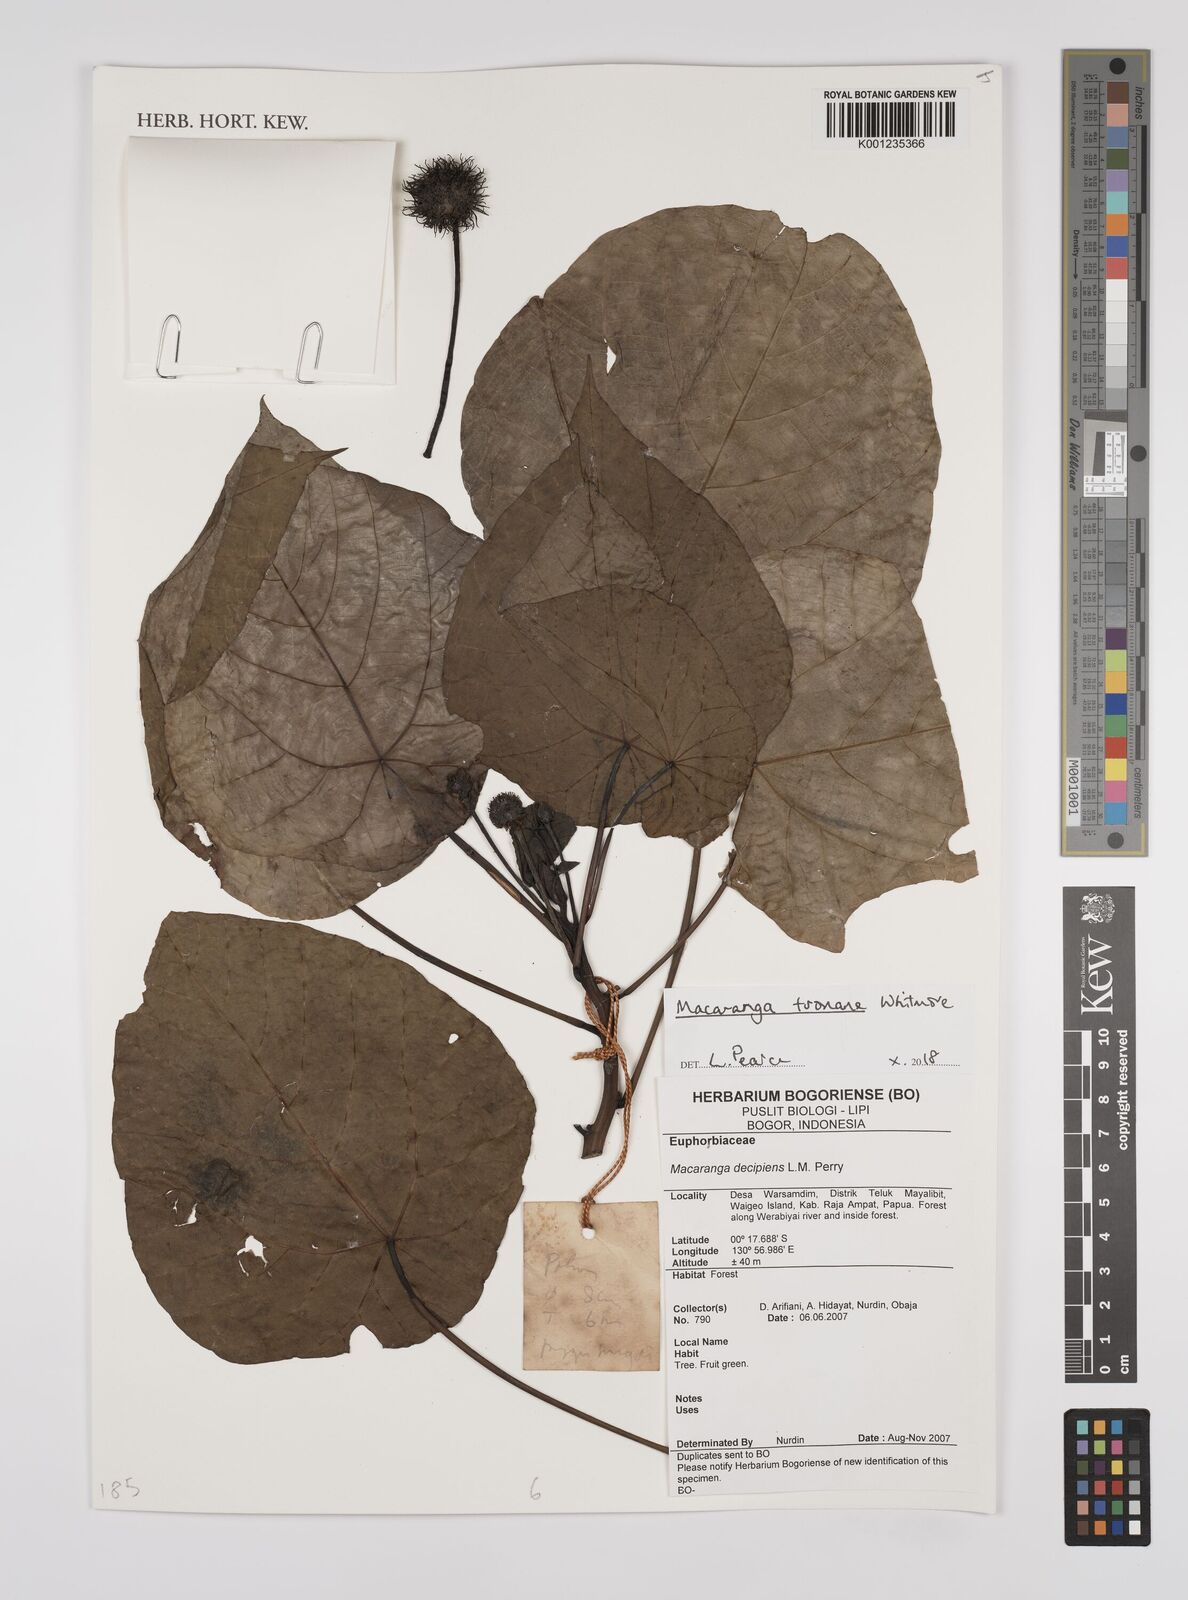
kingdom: Plantae
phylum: Tracheophyta
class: Magnoliopsida
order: Malpighiales
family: Euphorbiaceae
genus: Macaranga
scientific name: Macaranga tsonane
